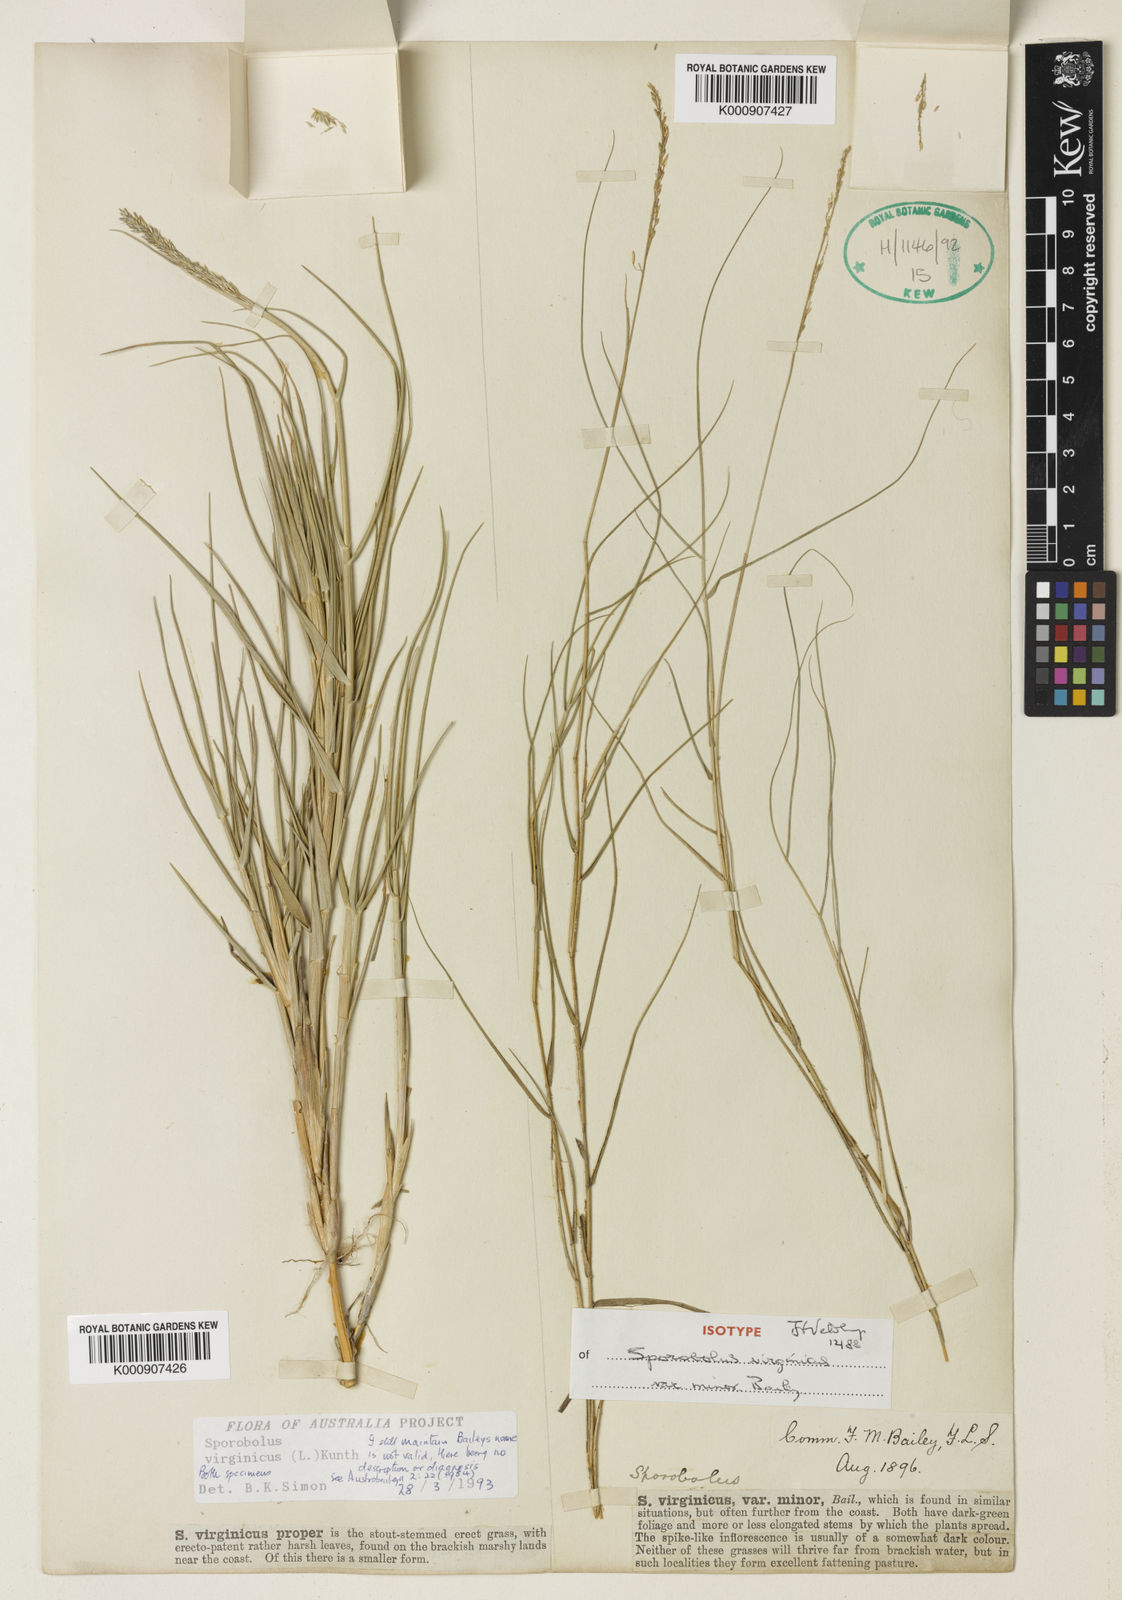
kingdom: Plantae
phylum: Tracheophyta
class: Liliopsida
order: Poales
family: Poaceae
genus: Sporobolus
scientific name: Sporobolus virginicus
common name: Beach dropseed
